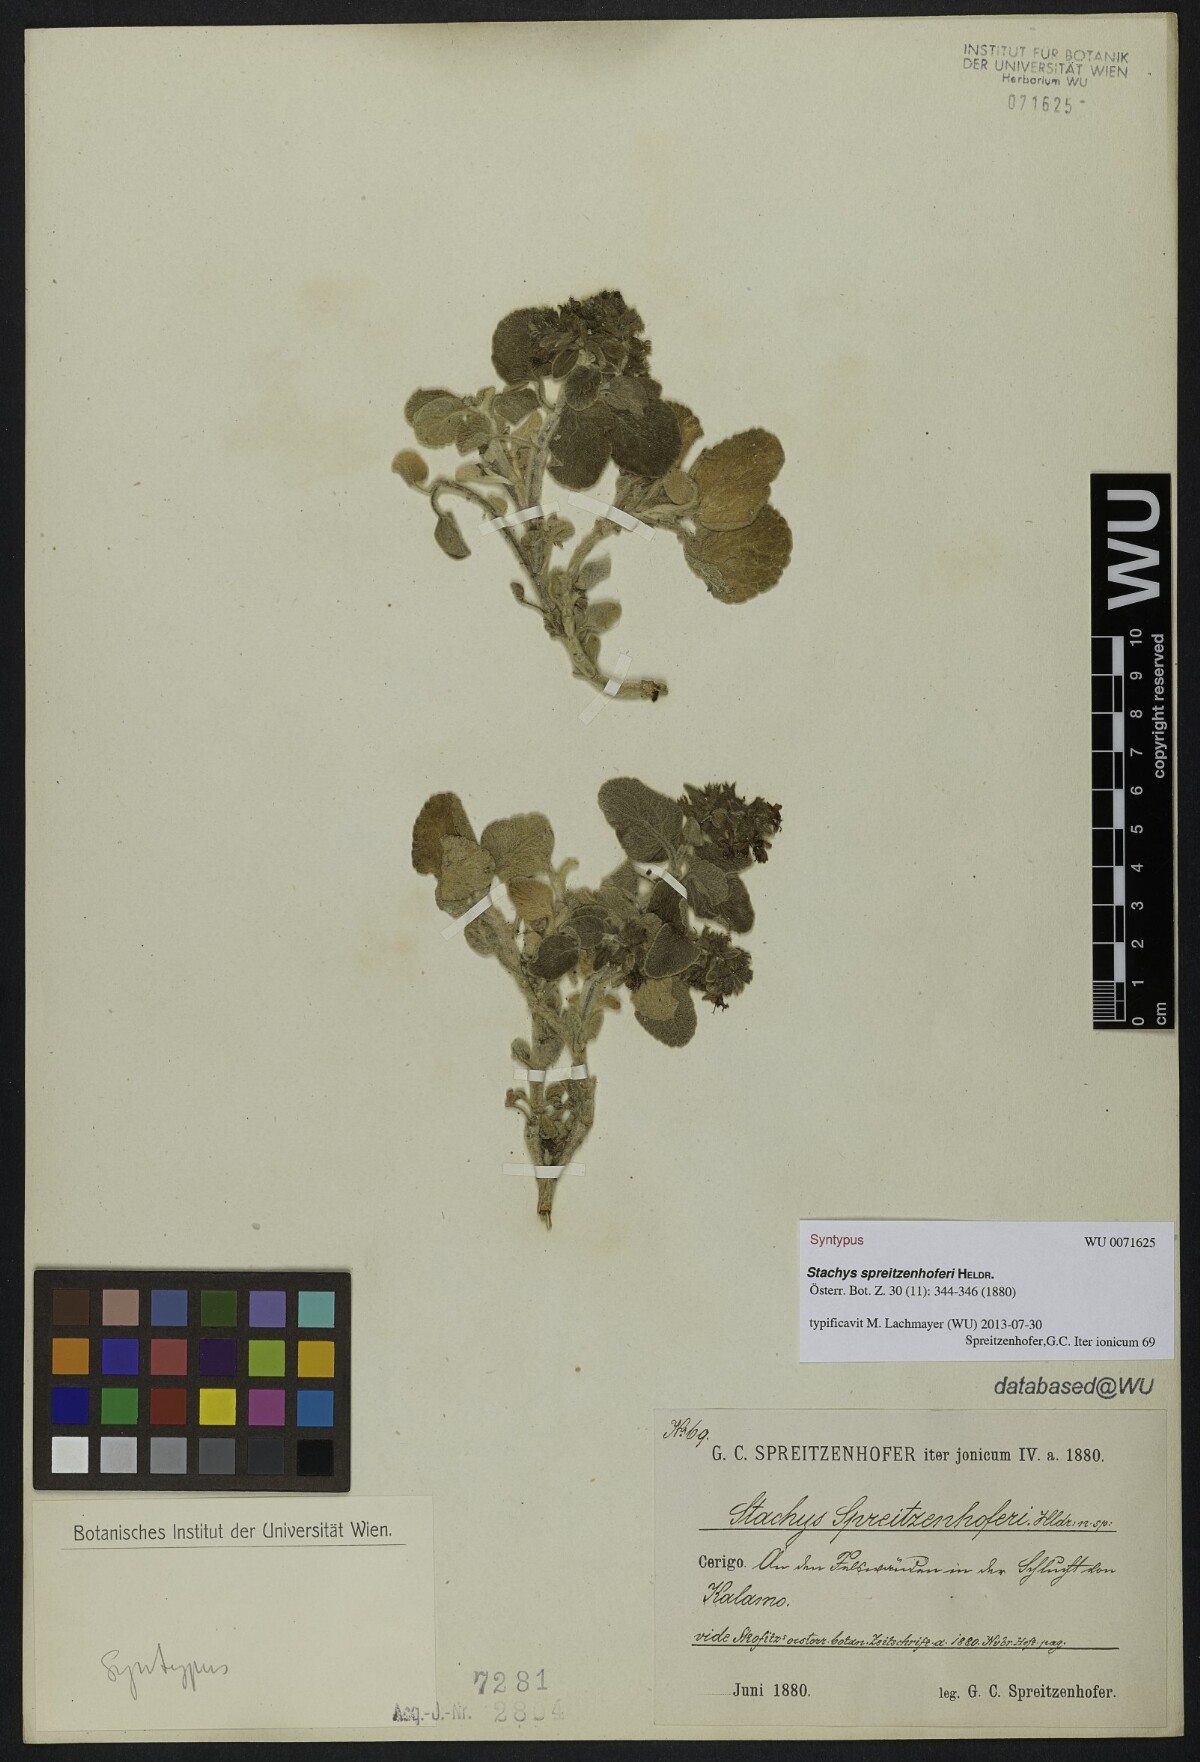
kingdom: Plantae
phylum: Tracheophyta
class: Magnoliopsida
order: Lamiales
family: Lamiaceae
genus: Stachys
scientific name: Stachys spreitzenhoferi
